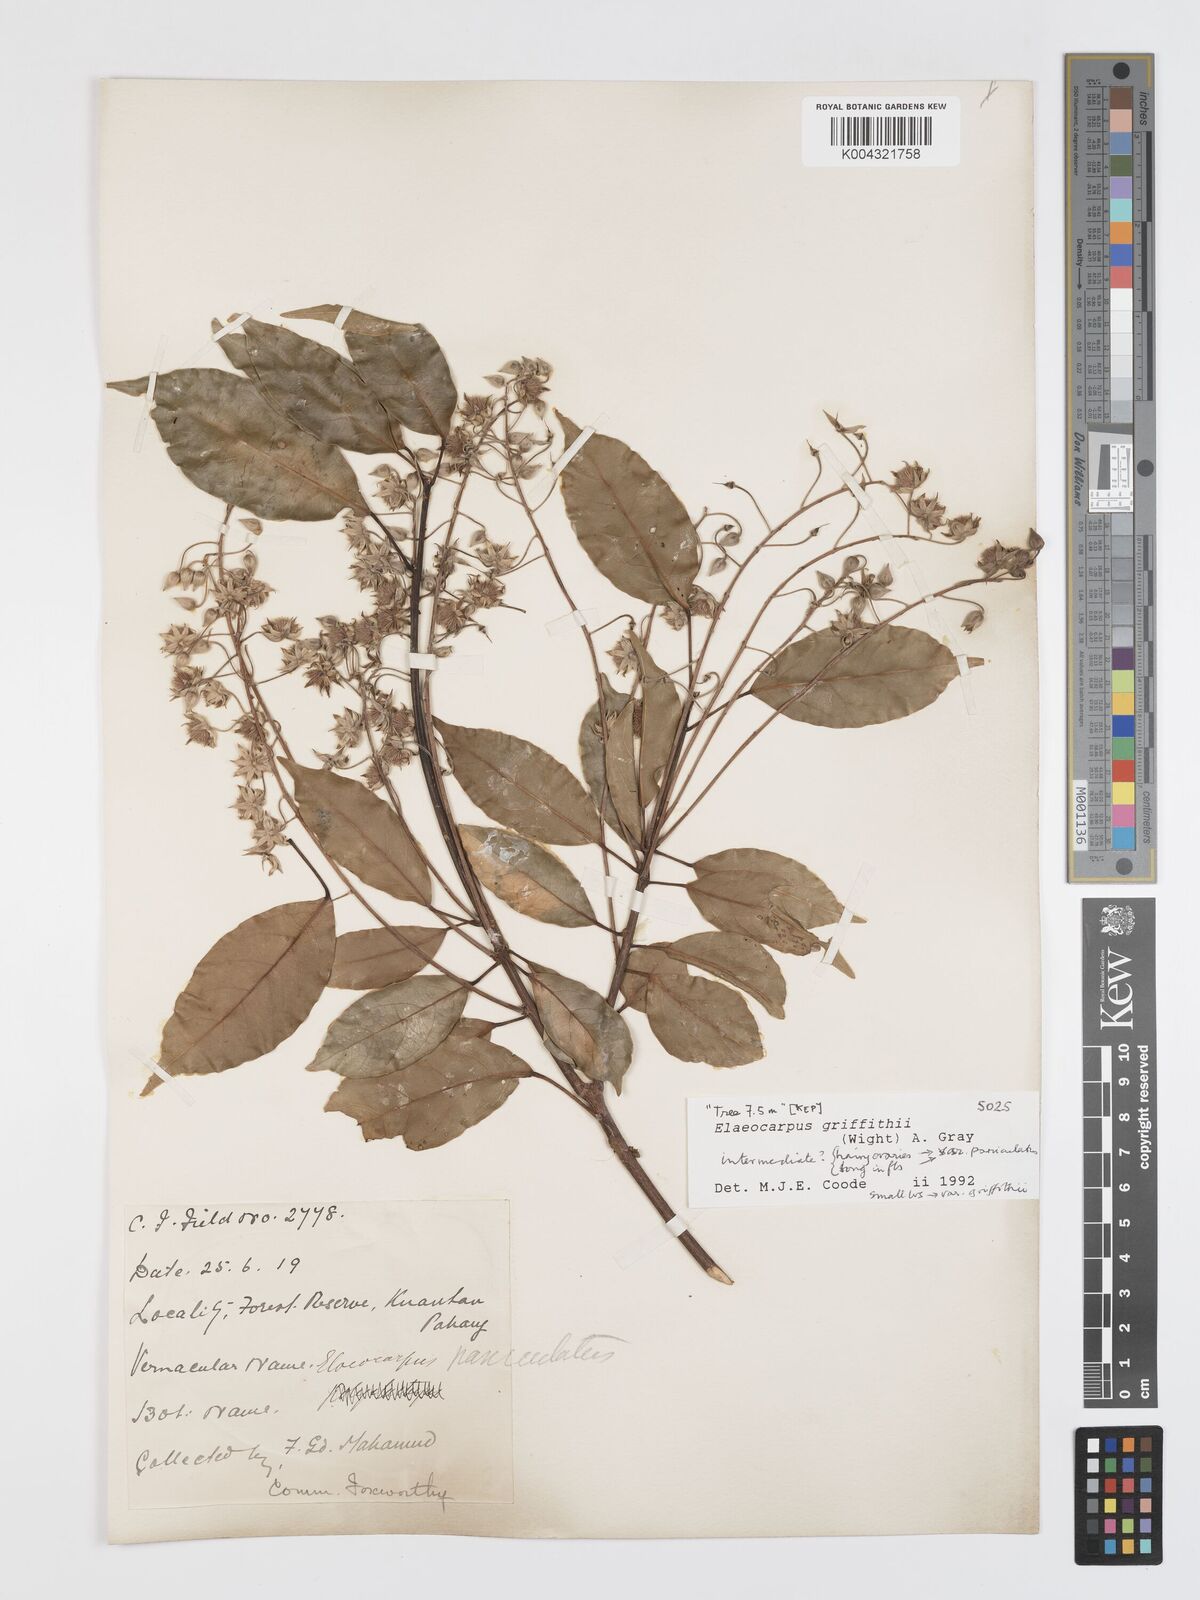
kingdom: Plantae
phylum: Tracheophyta
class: Magnoliopsida
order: Oxalidales
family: Elaeocarpaceae
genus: Elaeocarpus
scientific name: Elaeocarpus griffithii
